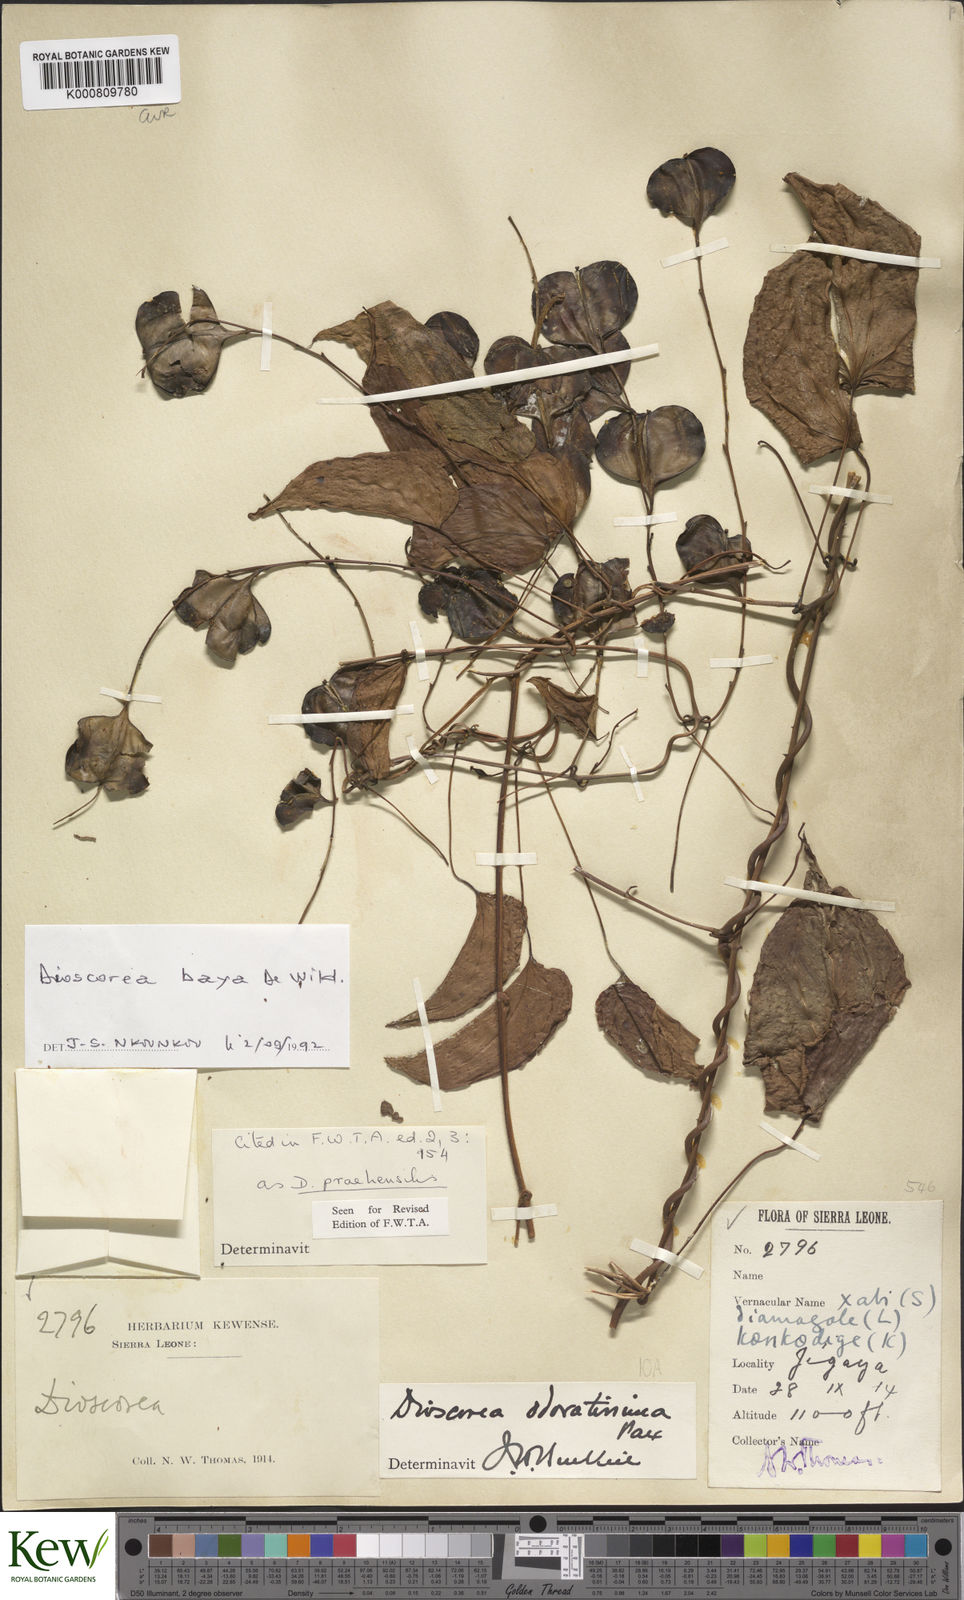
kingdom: Plantae
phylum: Tracheophyta
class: Liliopsida
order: Dioscoreales
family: Dioscoreaceae
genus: Dioscorea
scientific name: Dioscorea baya
